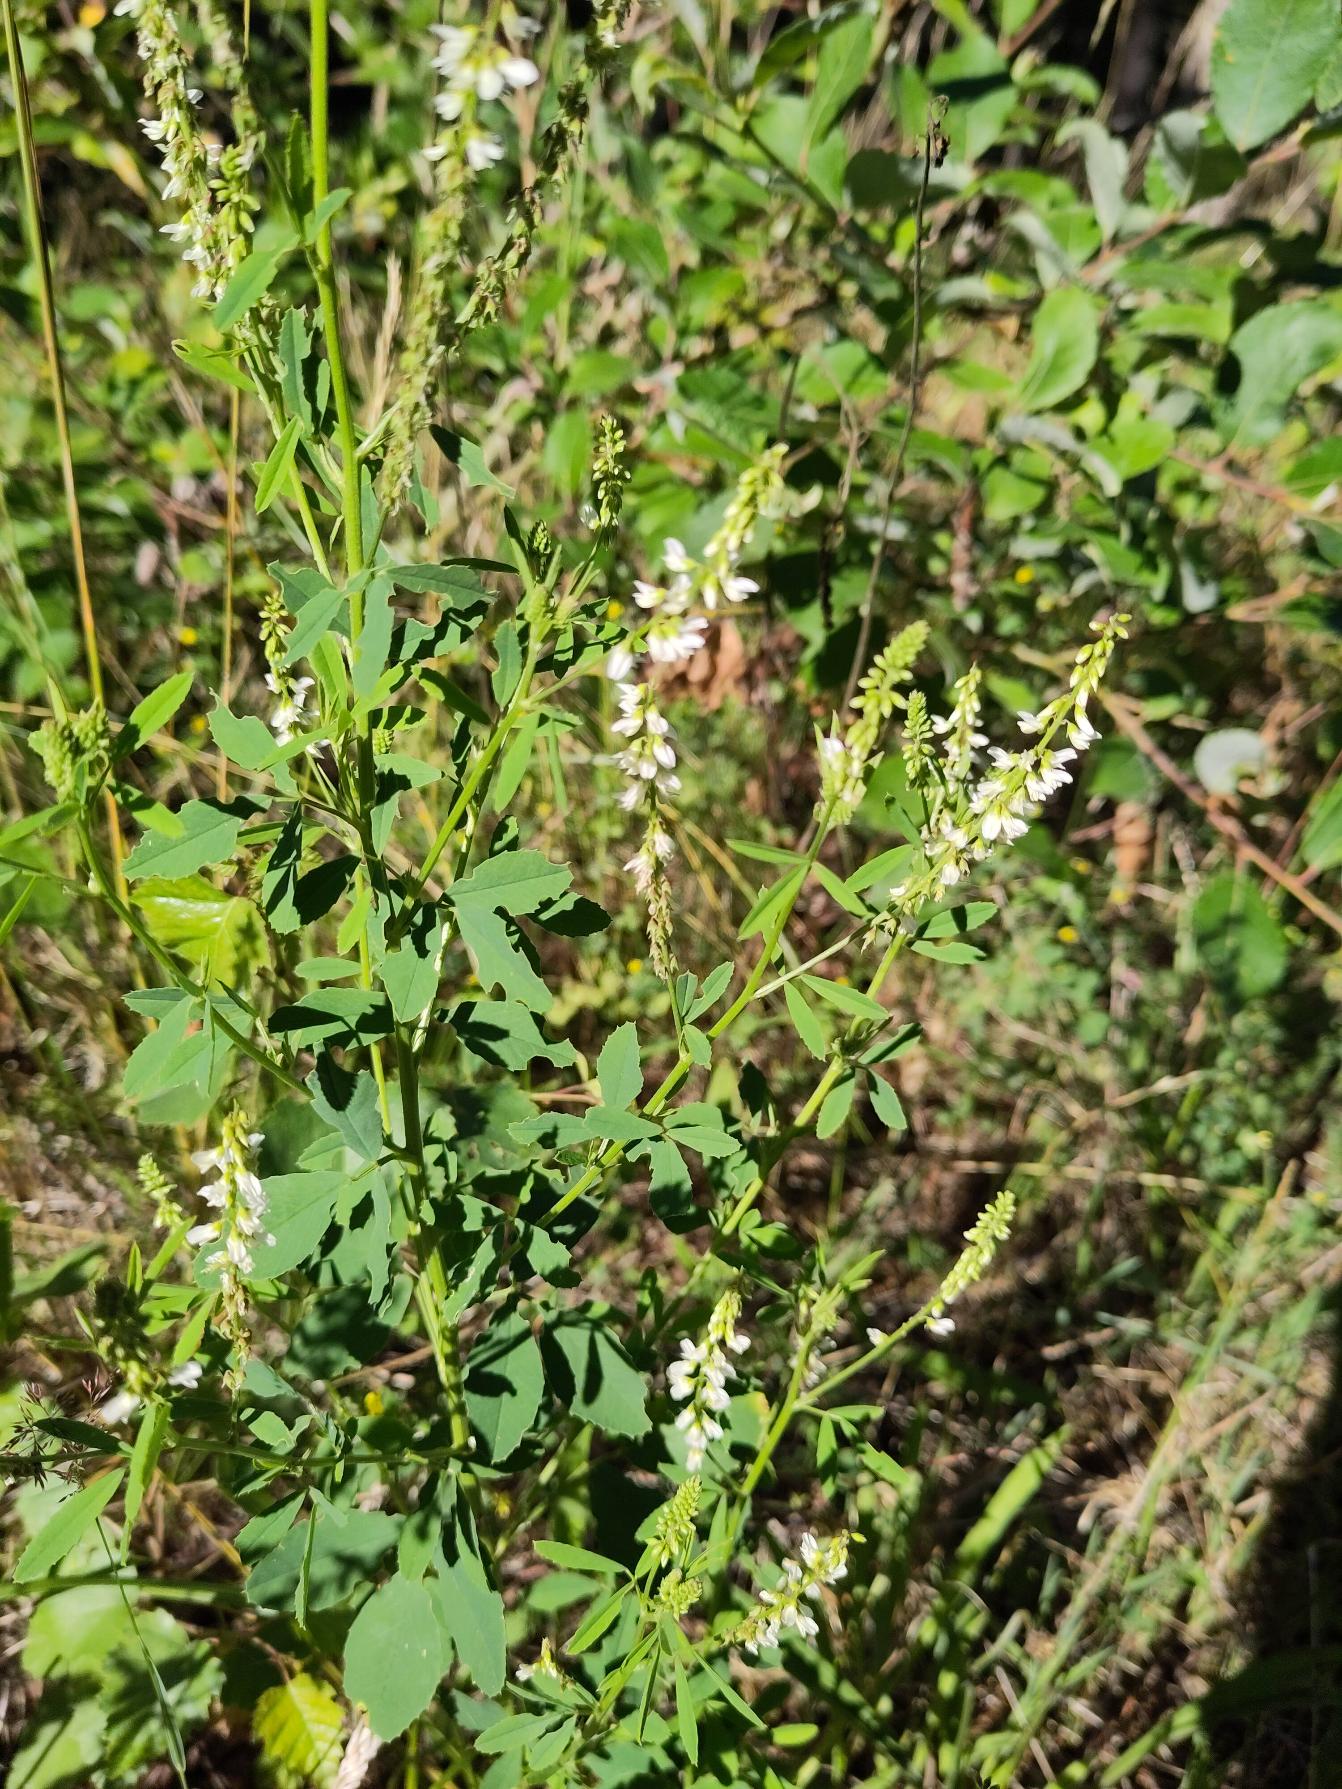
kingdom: Plantae
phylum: Tracheophyta
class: Magnoliopsida
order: Fabales
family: Fabaceae
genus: Melilotus
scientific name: Melilotus albus
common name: Hvid stenkløver
